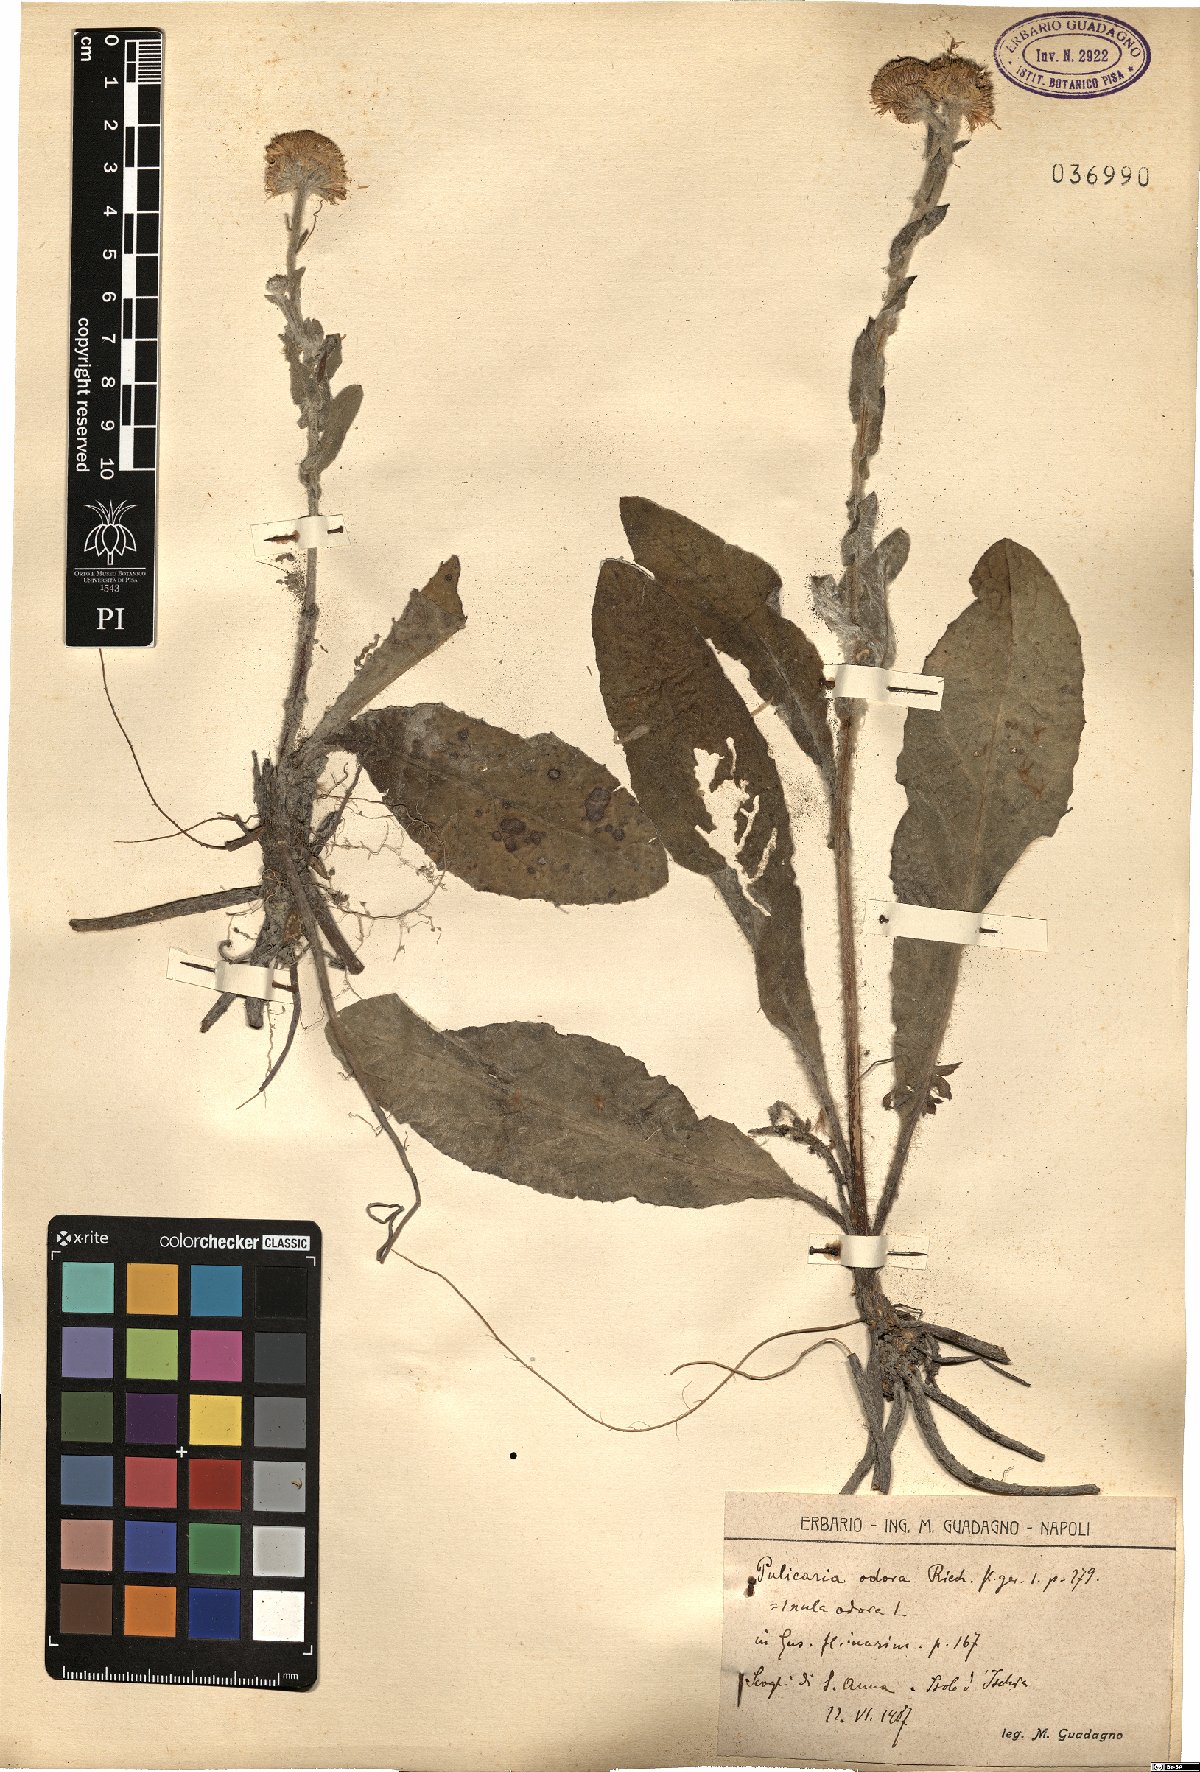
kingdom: Plantae
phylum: Tracheophyta
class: Magnoliopsida
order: Asterales
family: Asteraceae
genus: Pulicaria
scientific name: Pulicaria odora
